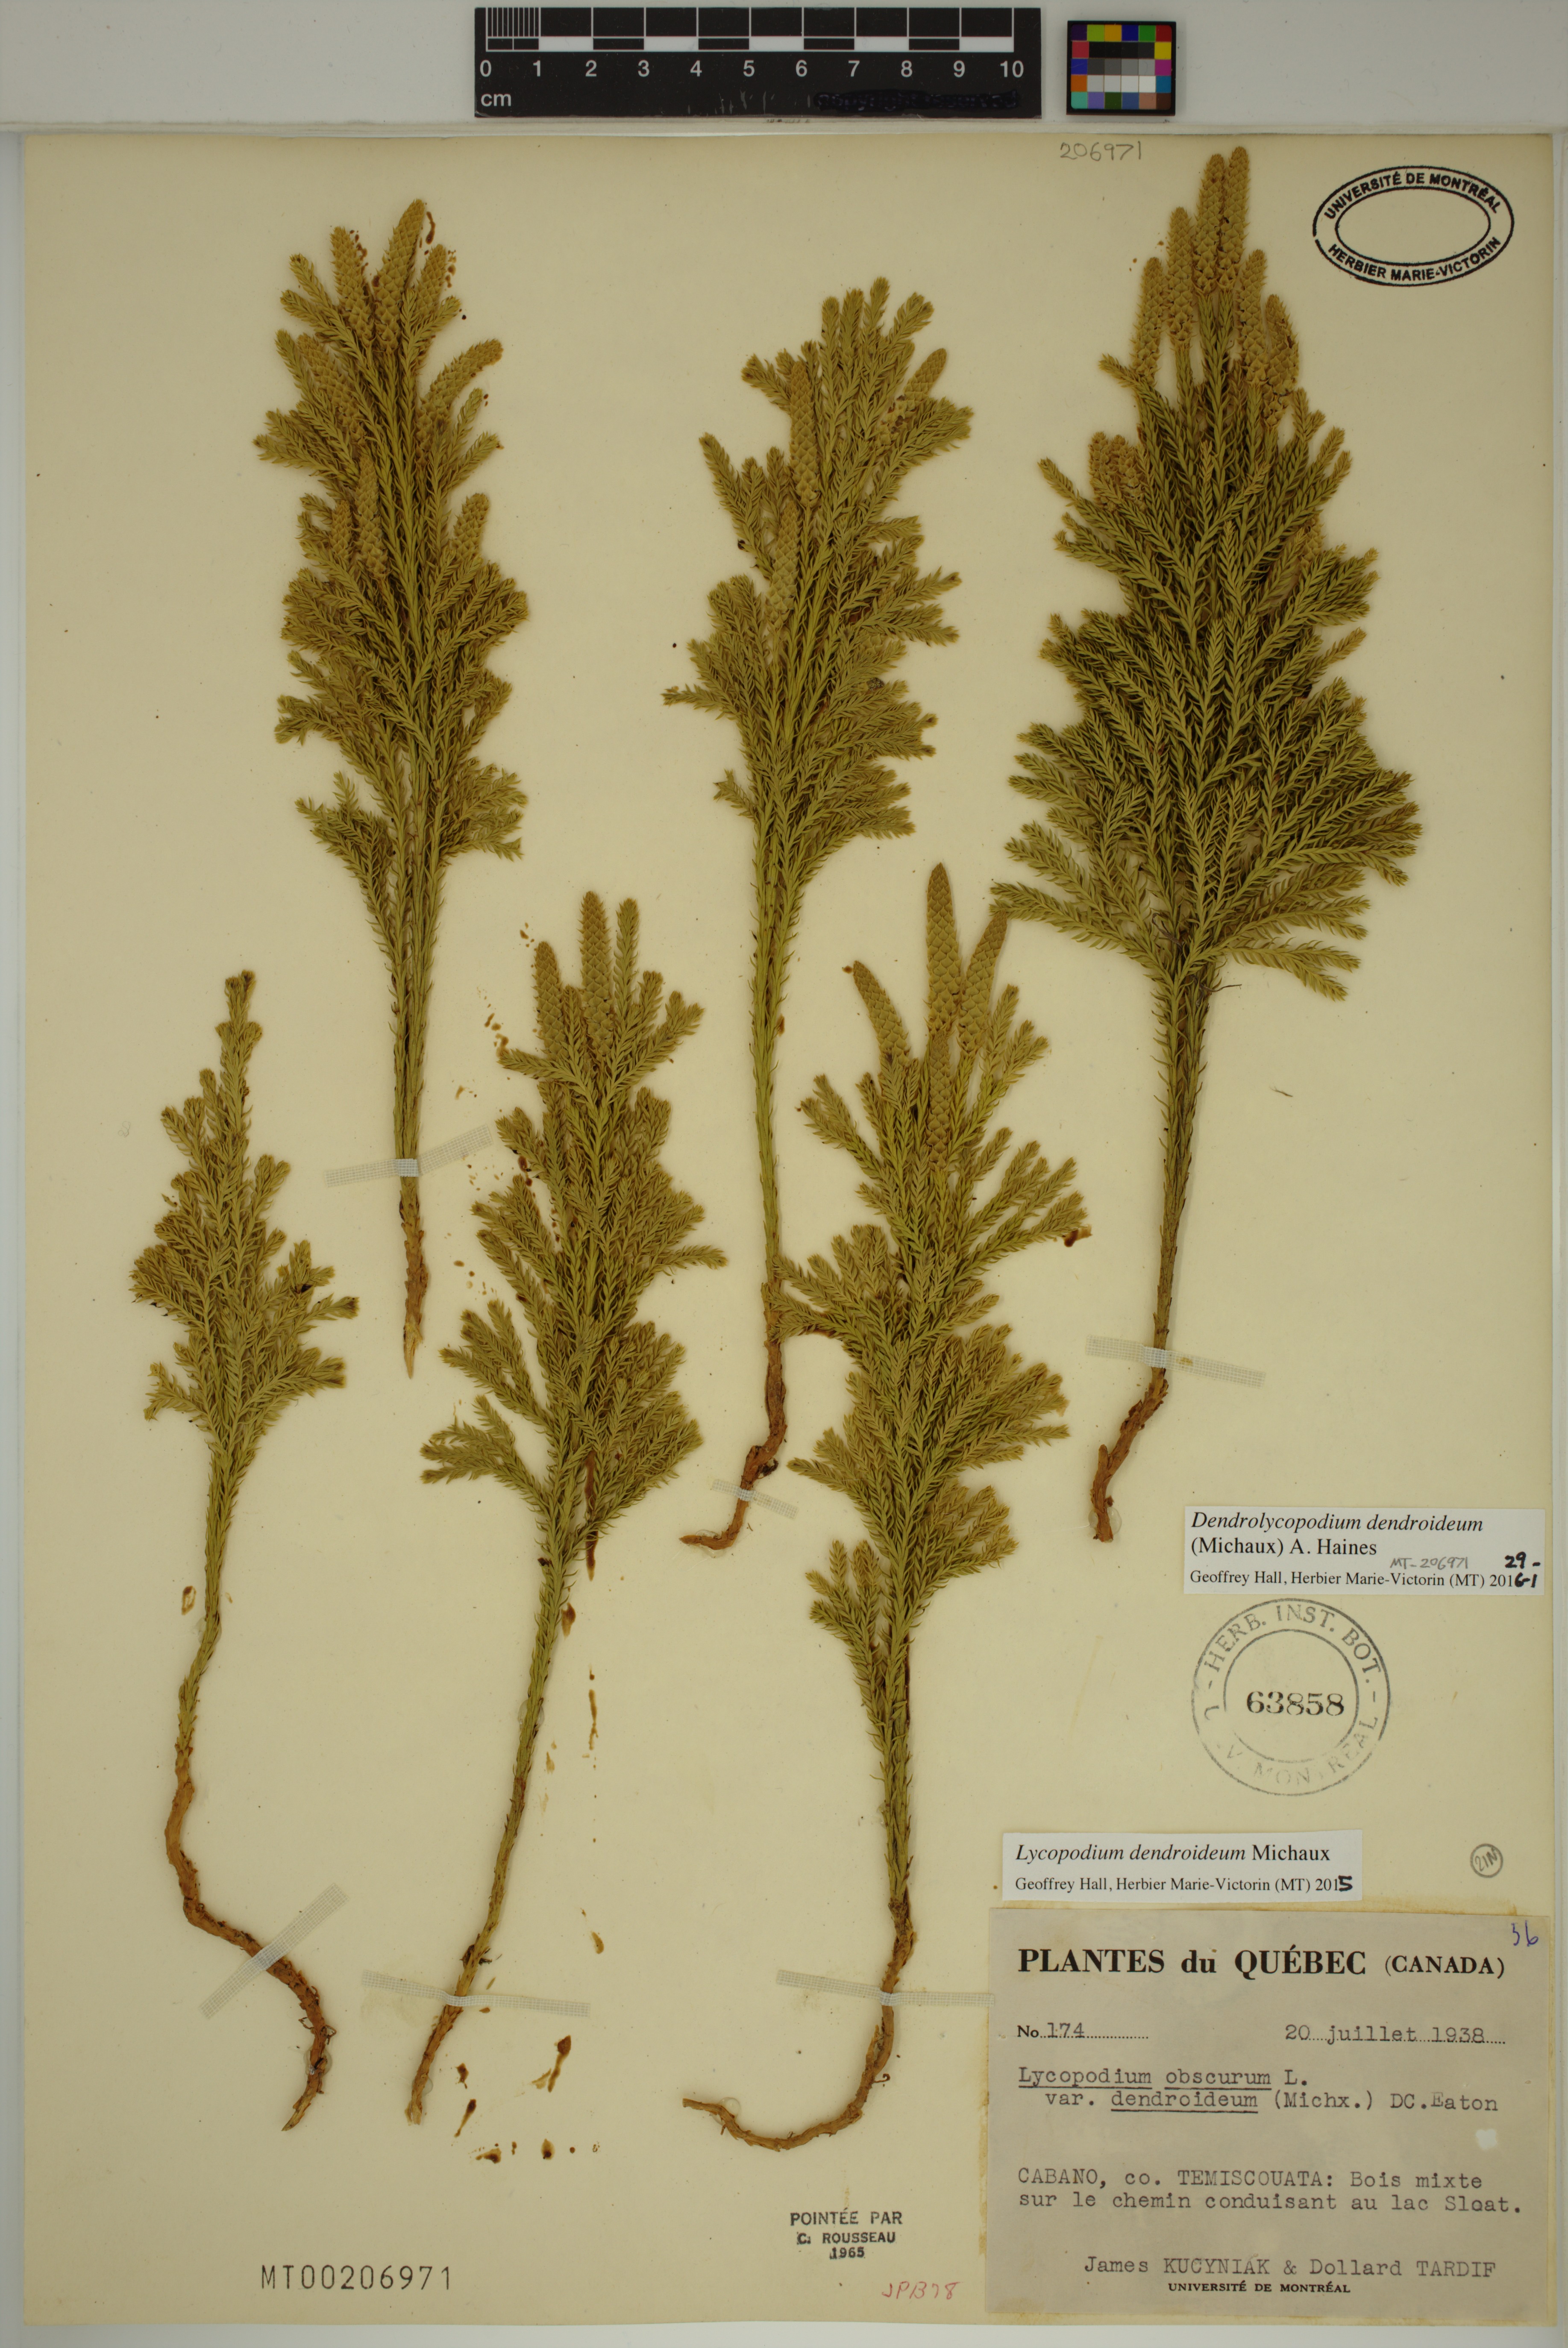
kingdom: Plantae
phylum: Tracheophyta
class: Lycopodiopsida
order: Lycopodiales
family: Lycopodiaceae
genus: Dendrolycopodium
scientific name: Dendrolycopodium dendroideum
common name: Northern tree-clubmoss
